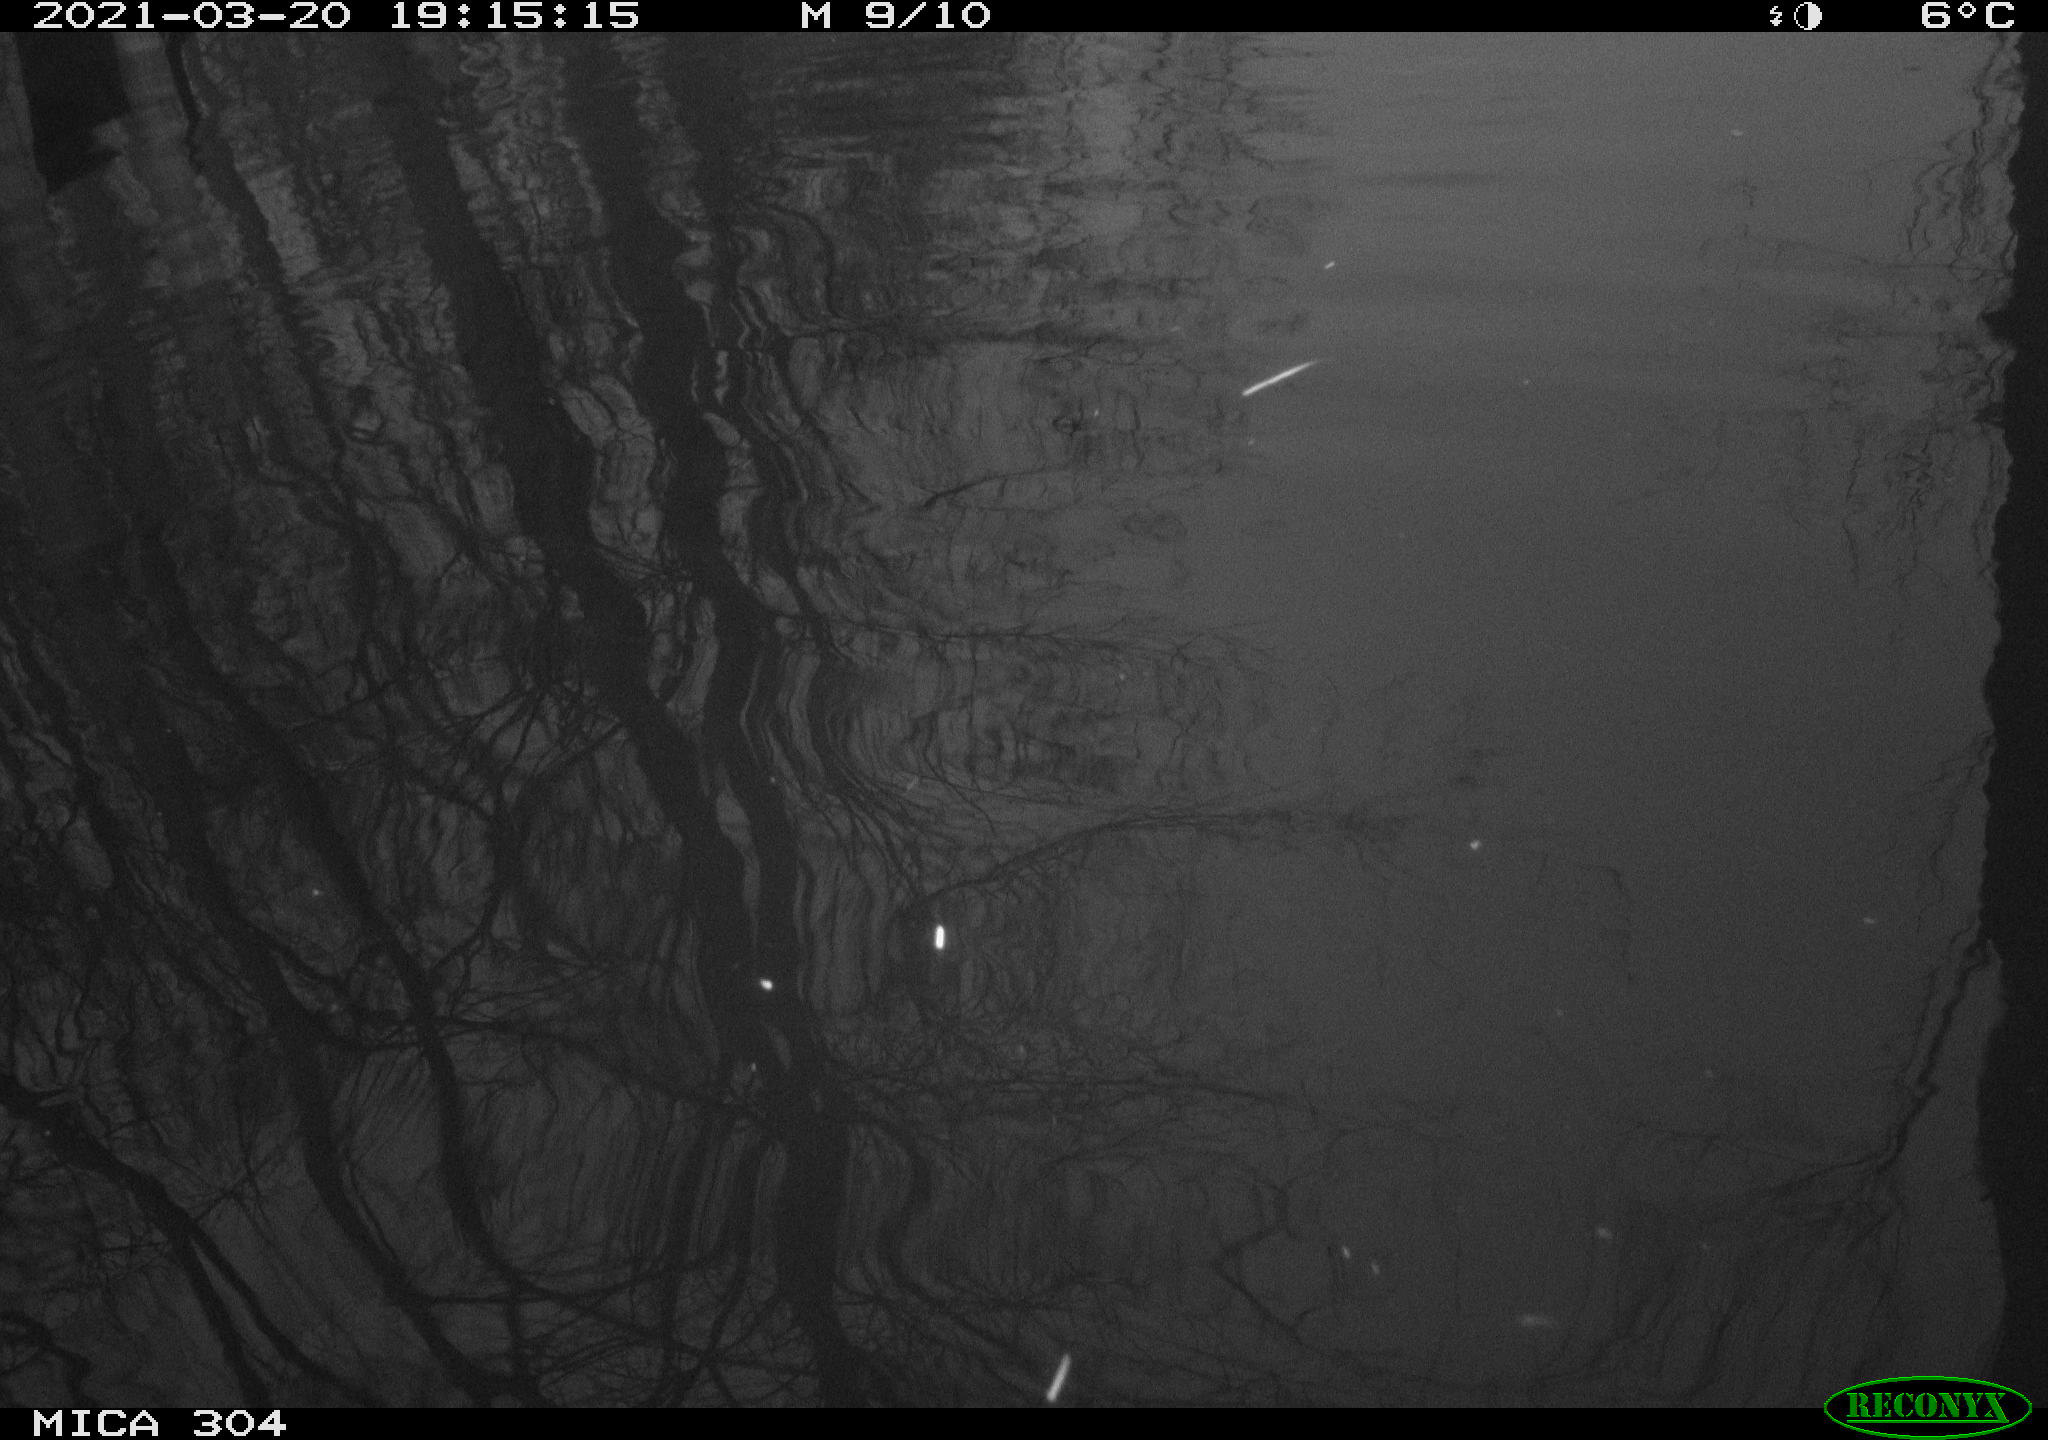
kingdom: Animalia
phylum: Chordata
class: Aves
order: Anseriformes
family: Anatidae
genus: Anas
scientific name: Anas platyrhynchos
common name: Mallard
